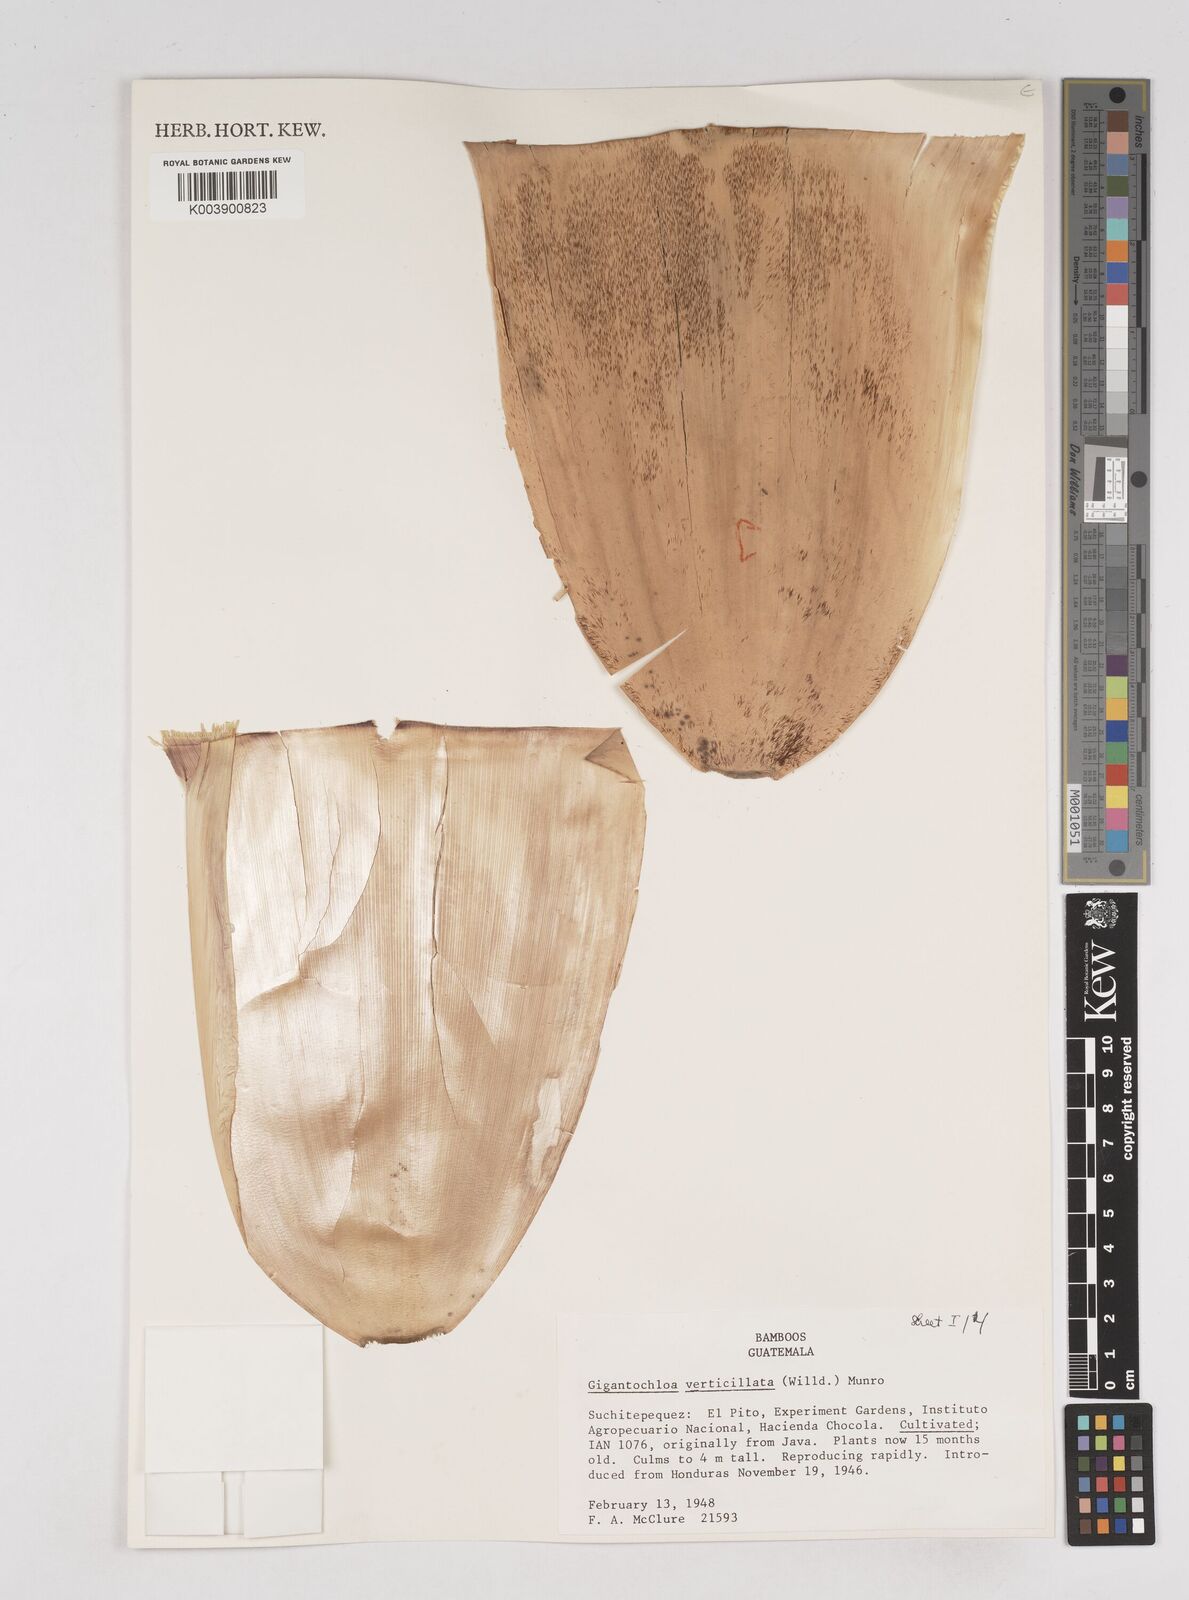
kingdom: Plantae
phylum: Tracheophyta
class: Liliopsida
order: Poales
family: Poaceae
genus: Gigantochloa
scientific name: Gigantochloa verticillata
